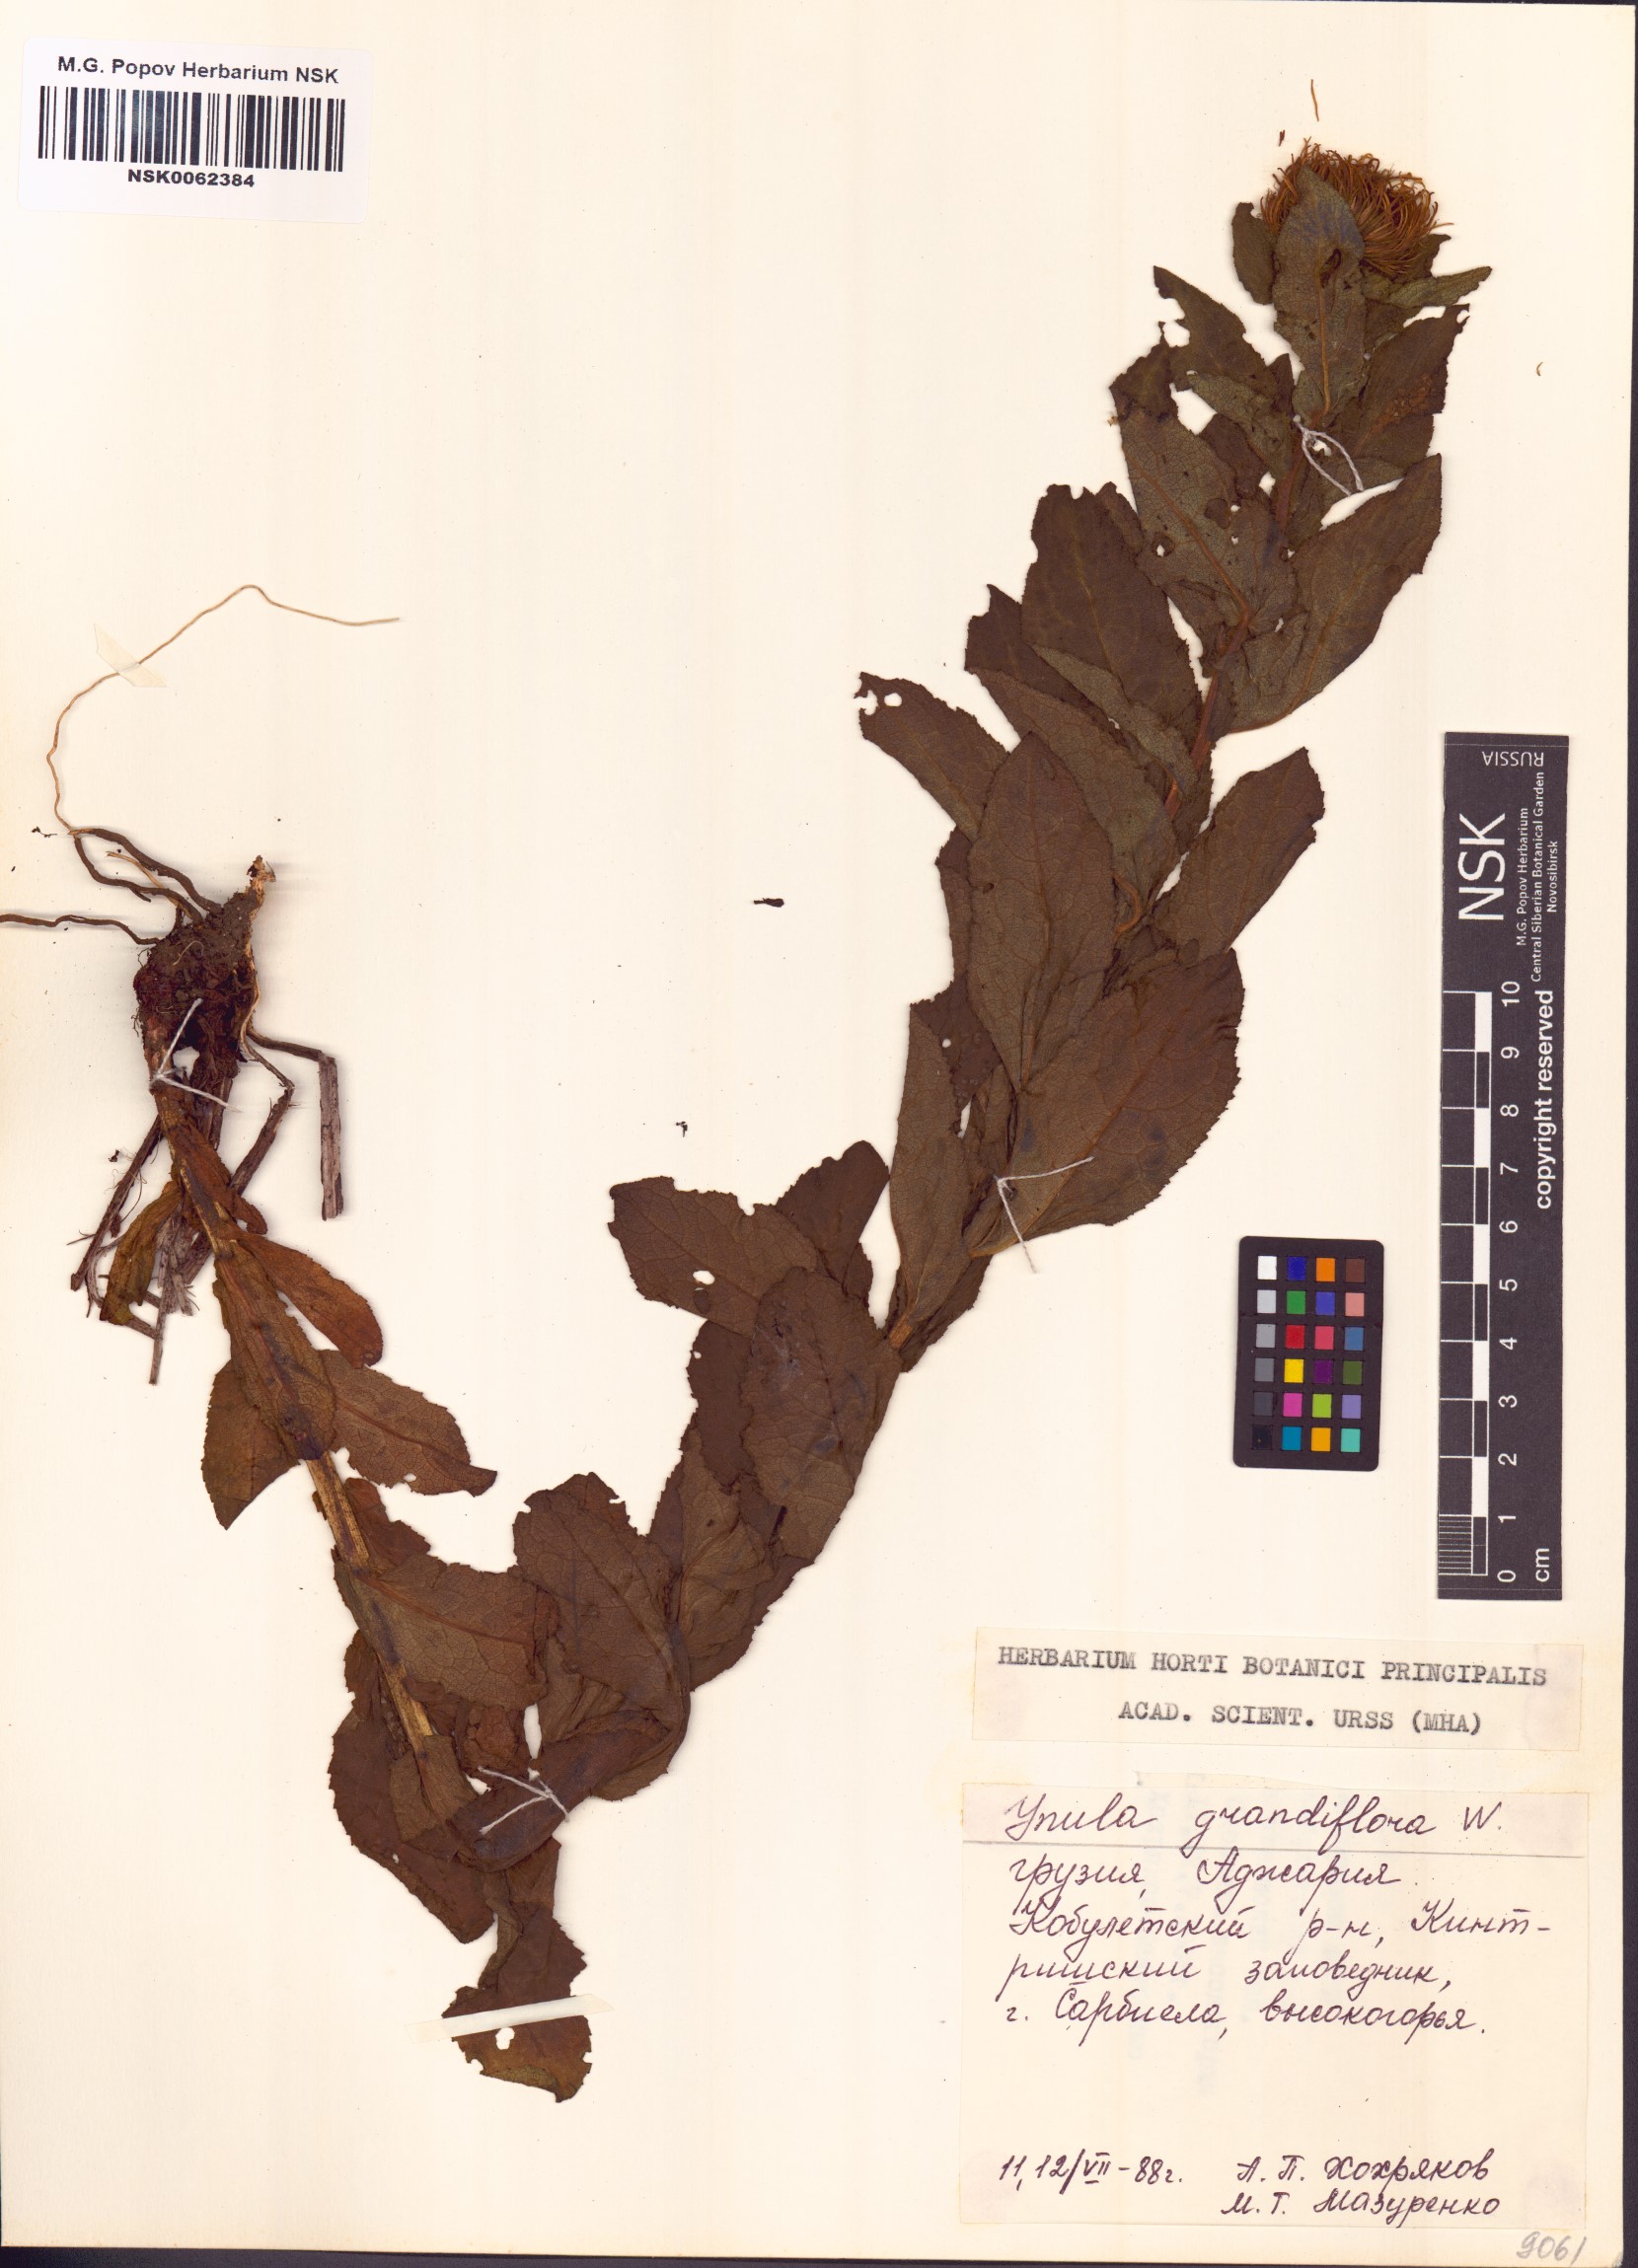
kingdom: Plantae
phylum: Tracheophyta
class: Magnoliopsida
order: Asterales
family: Asteraceae
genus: Inula
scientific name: Inula grandiflora
